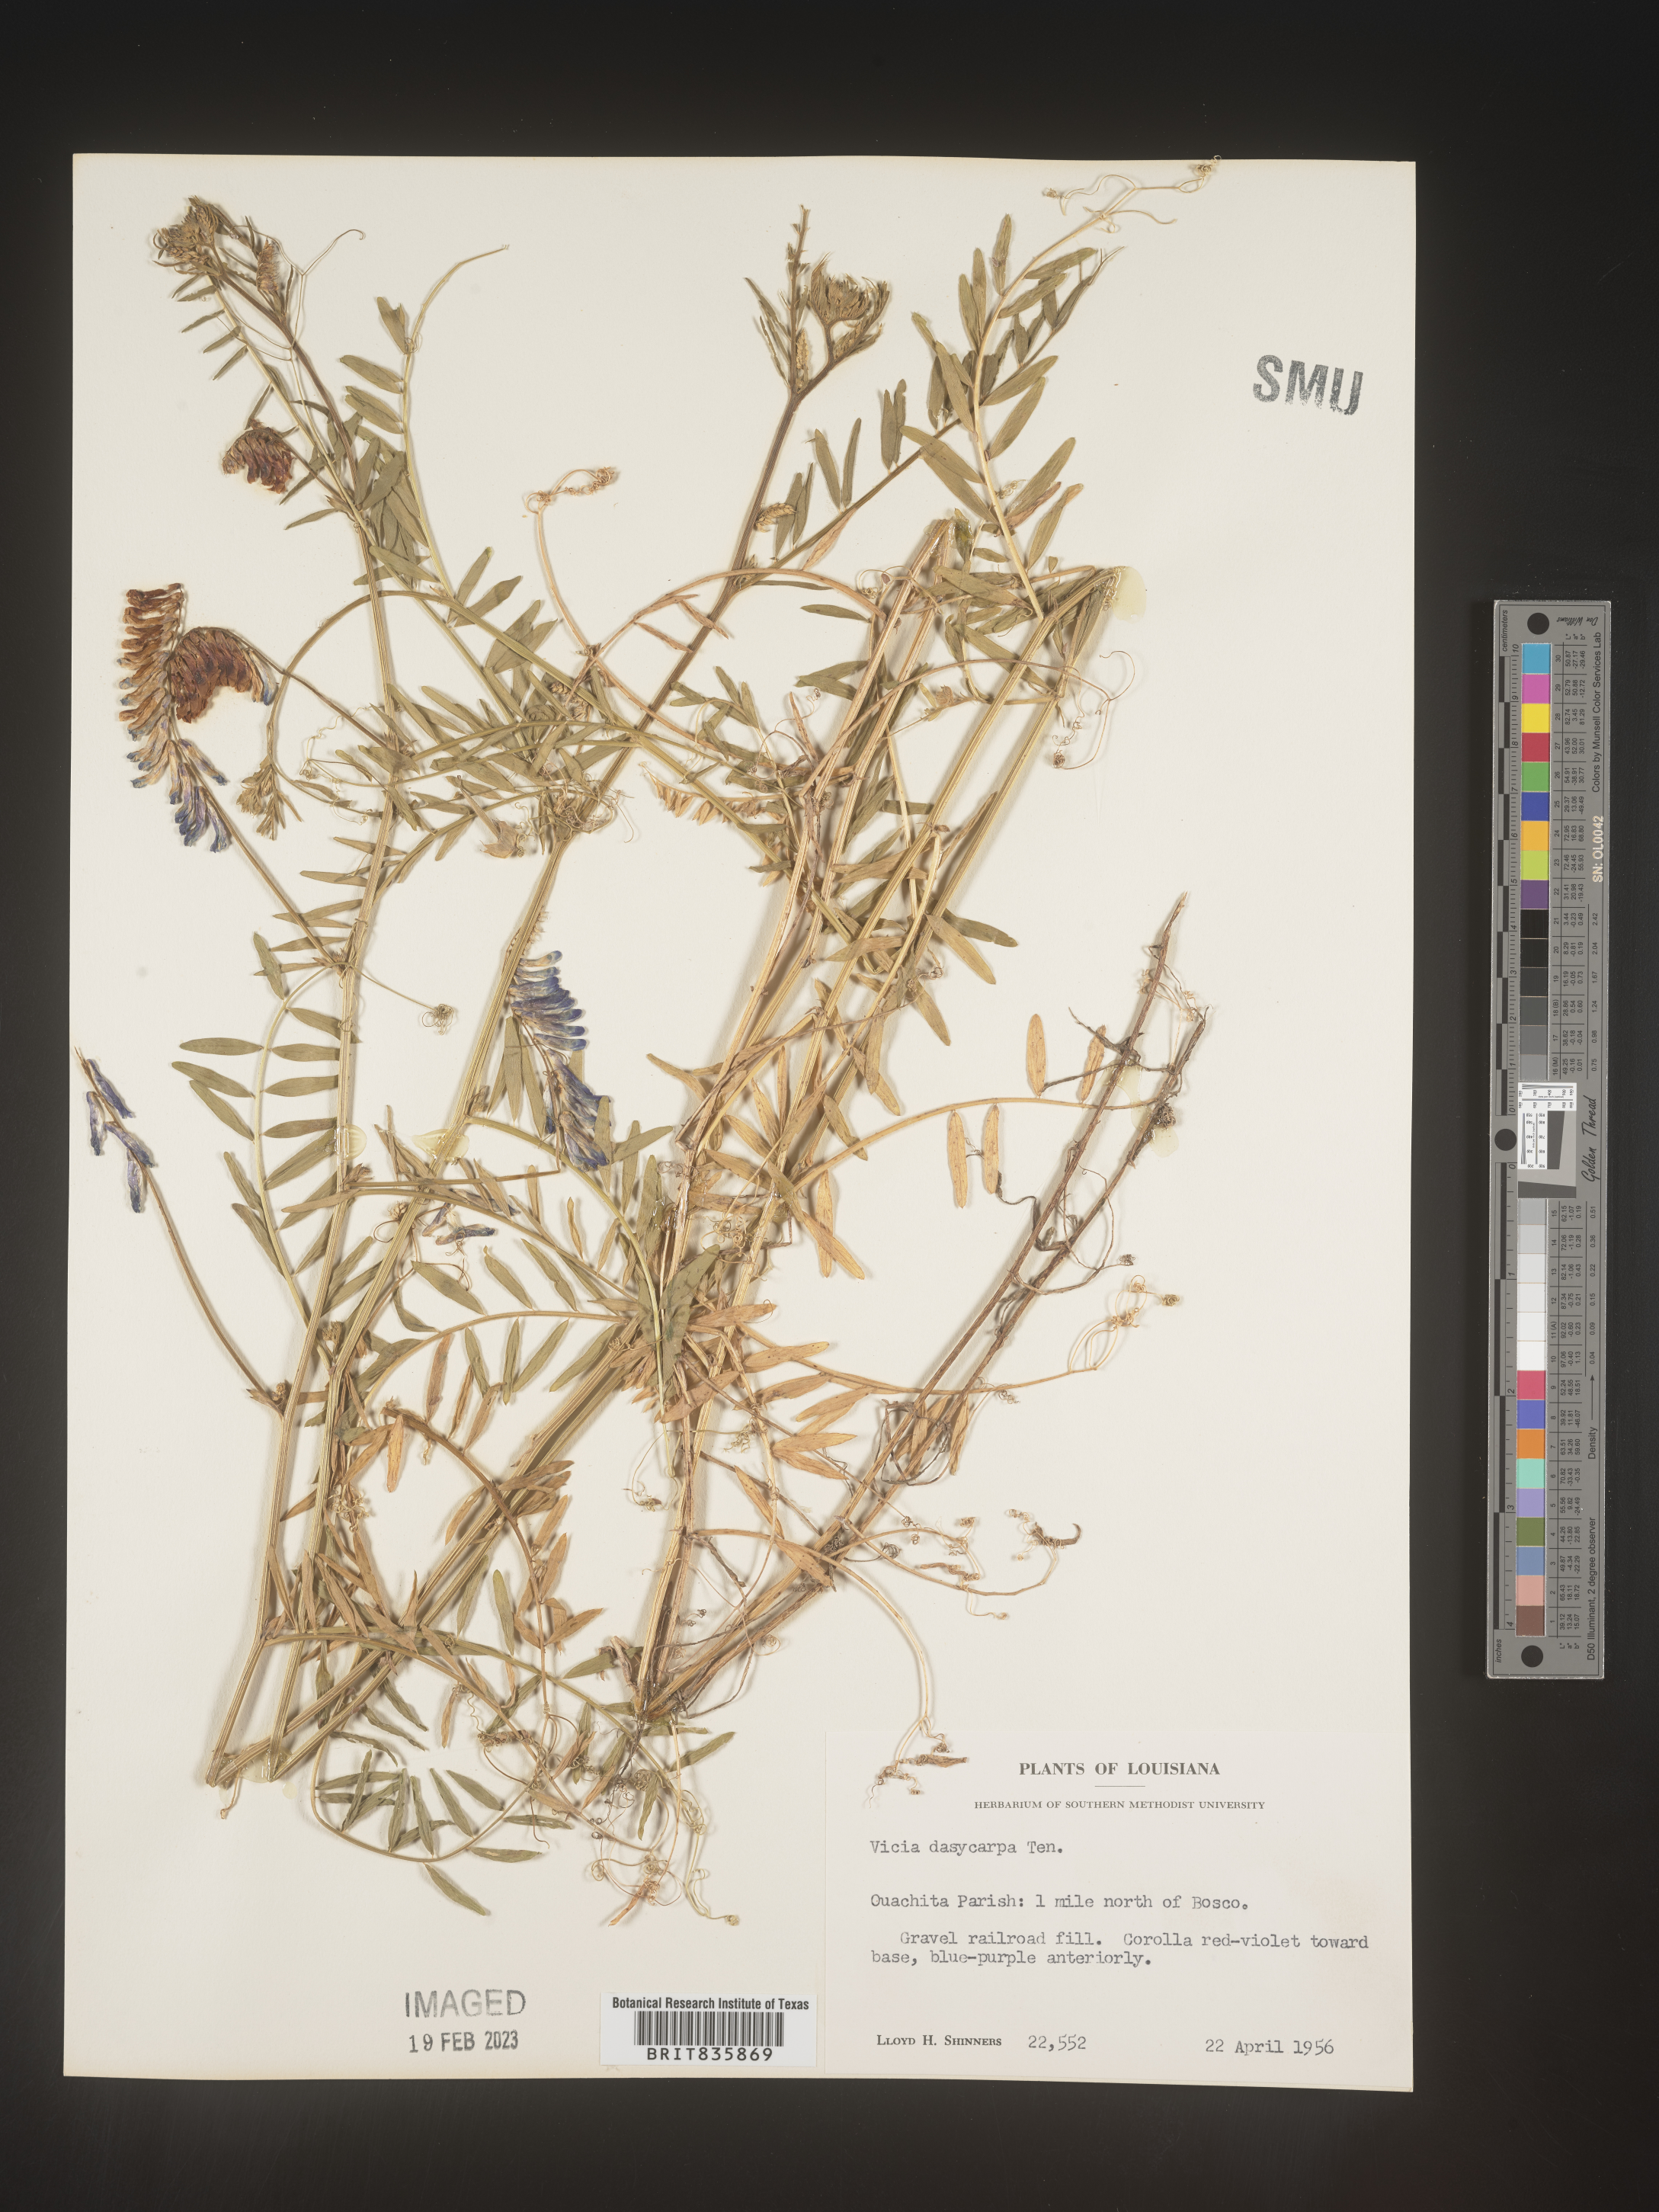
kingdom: Plantae
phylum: Tracheophyta
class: Magnoliopsida
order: Fabales
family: Fabaceae
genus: Vicia
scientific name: Vicia villosa
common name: Fodder vetch
